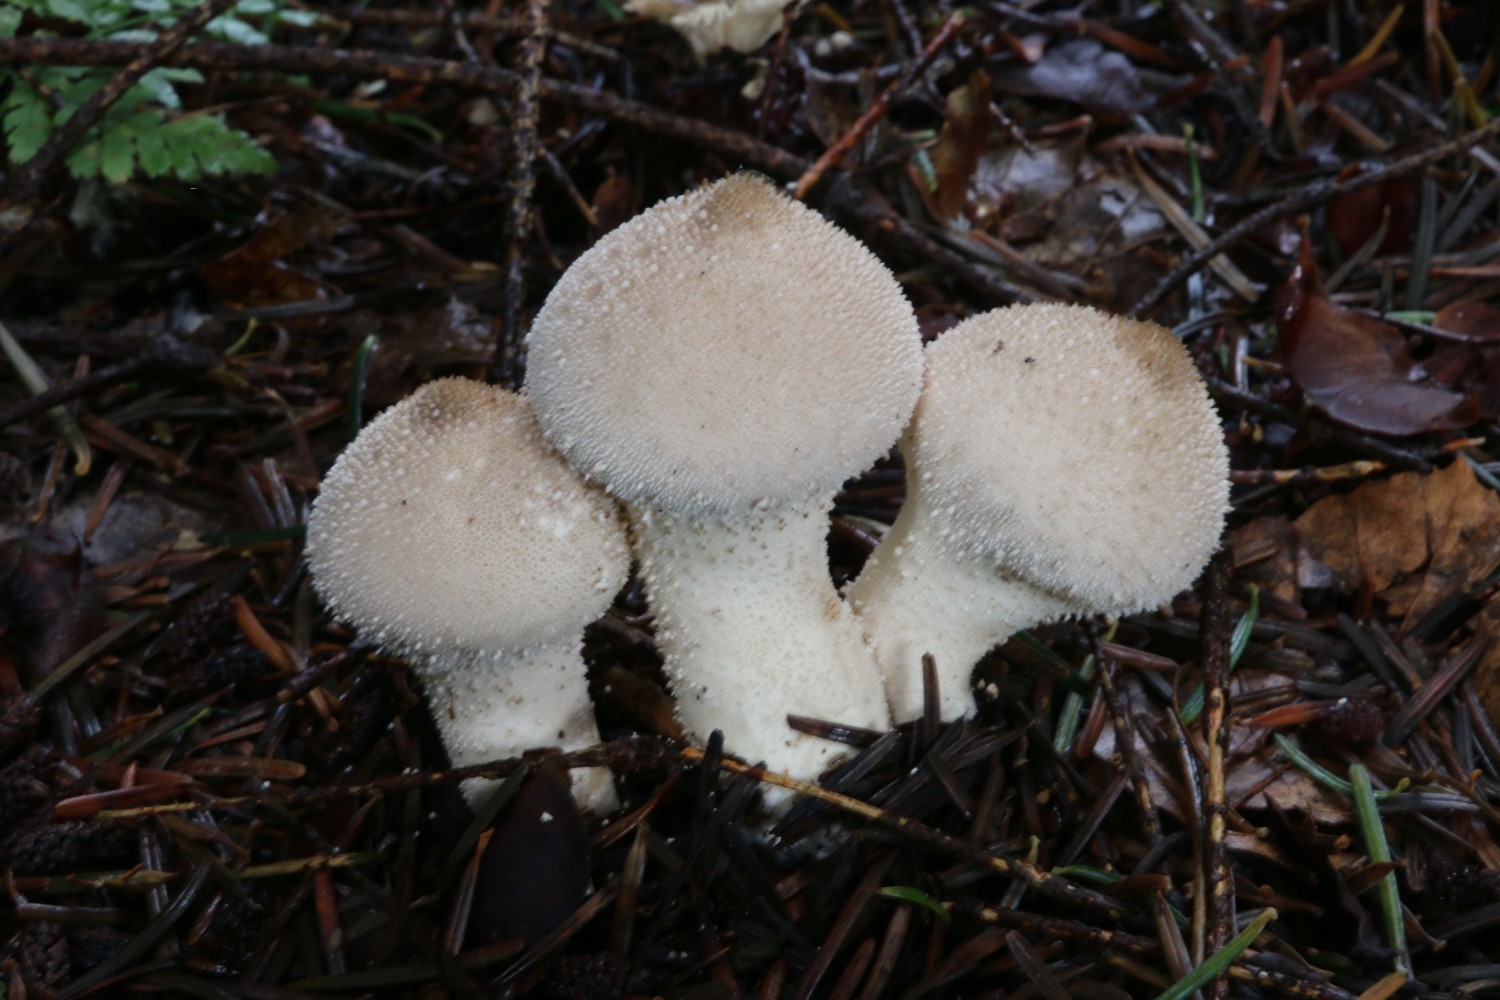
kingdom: Fungi
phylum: Basidiomycota
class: Agaricomycetes
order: Agaricales
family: Lycoperdaceae
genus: Lycoperdon
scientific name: Lycoperdon perlatum
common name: krystal-støvbold
